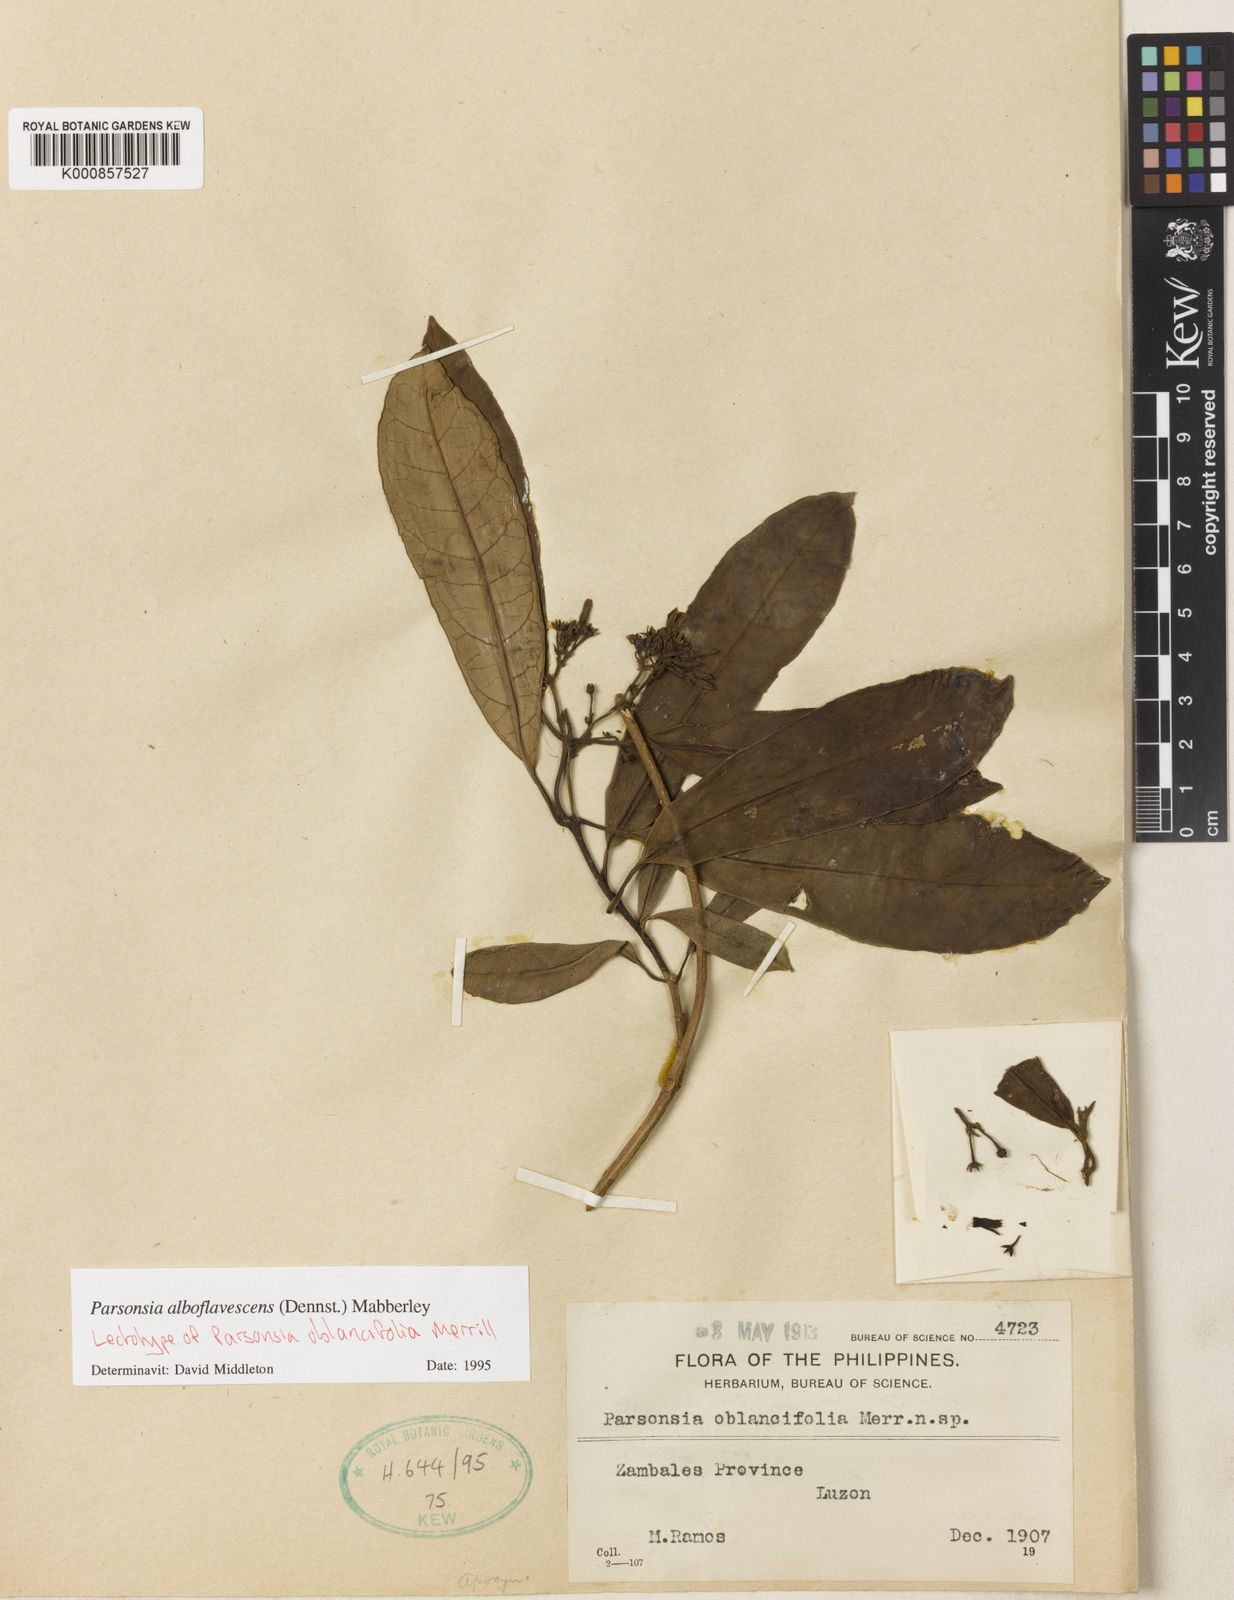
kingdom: Plantae
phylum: Tracheophyta
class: Magnoliopsida
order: Gentianales
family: Apocynaceae
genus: Parsonsia
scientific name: Parsonsia alboflavescens
